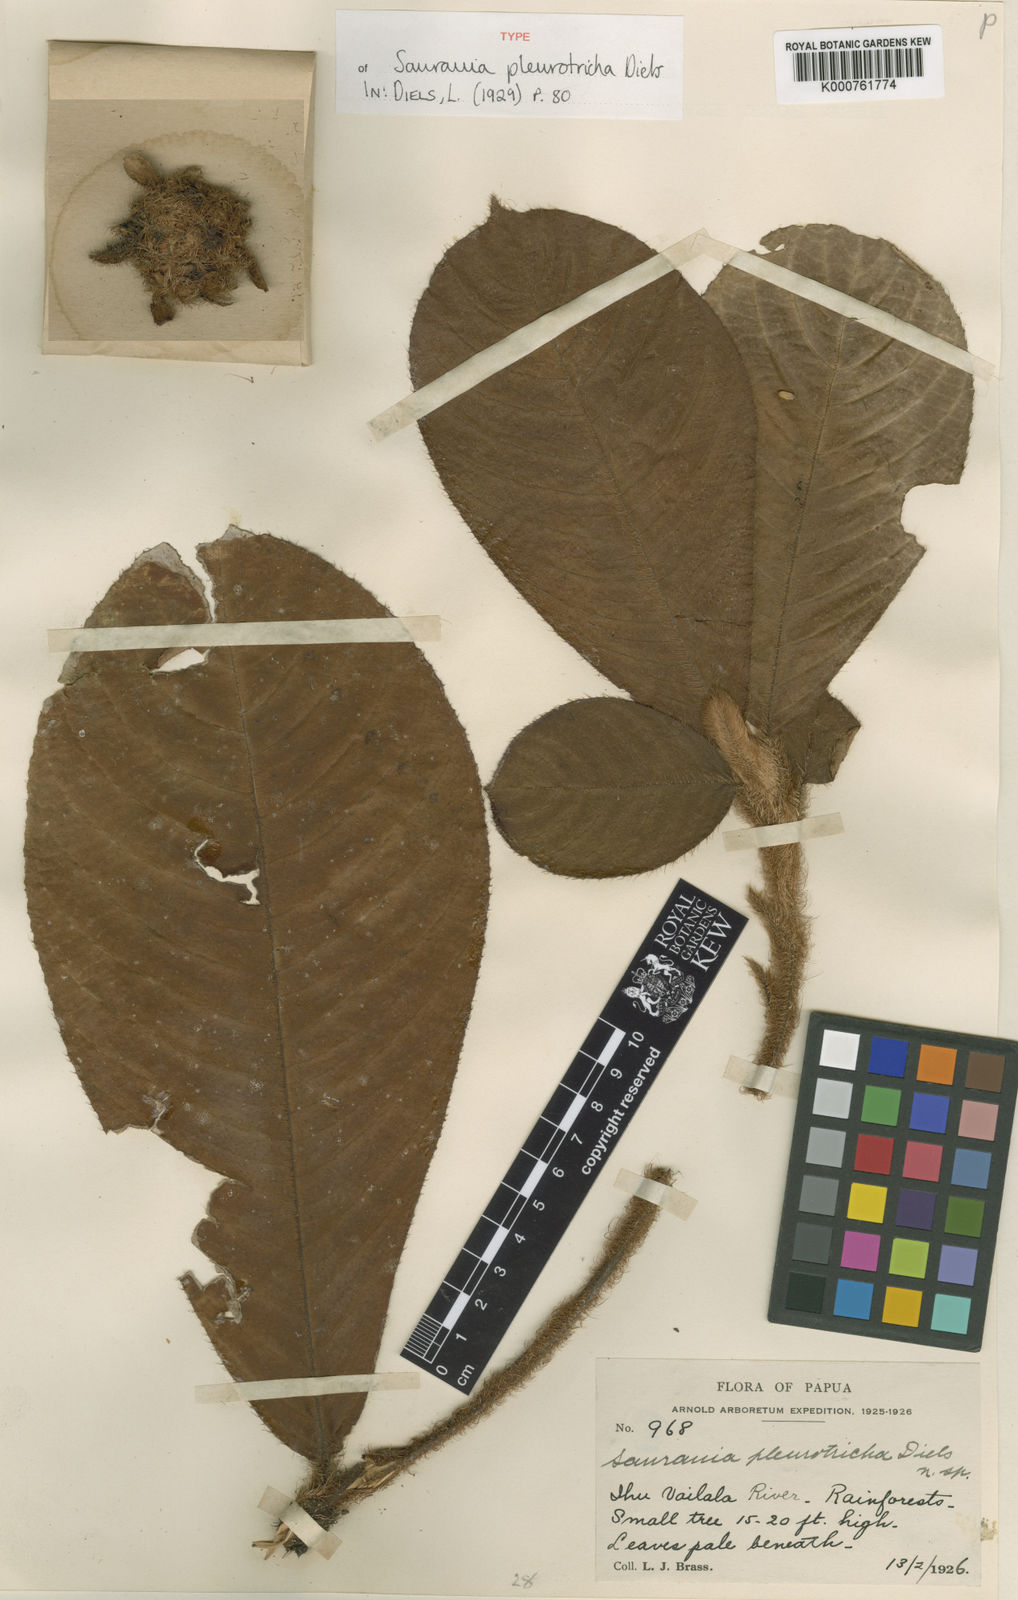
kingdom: Plantae
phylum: Tracheophyta
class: Magnoliopsida
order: Ericales
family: Actinidiaceae
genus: Saurauia
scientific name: Saurauia pleurotricha
